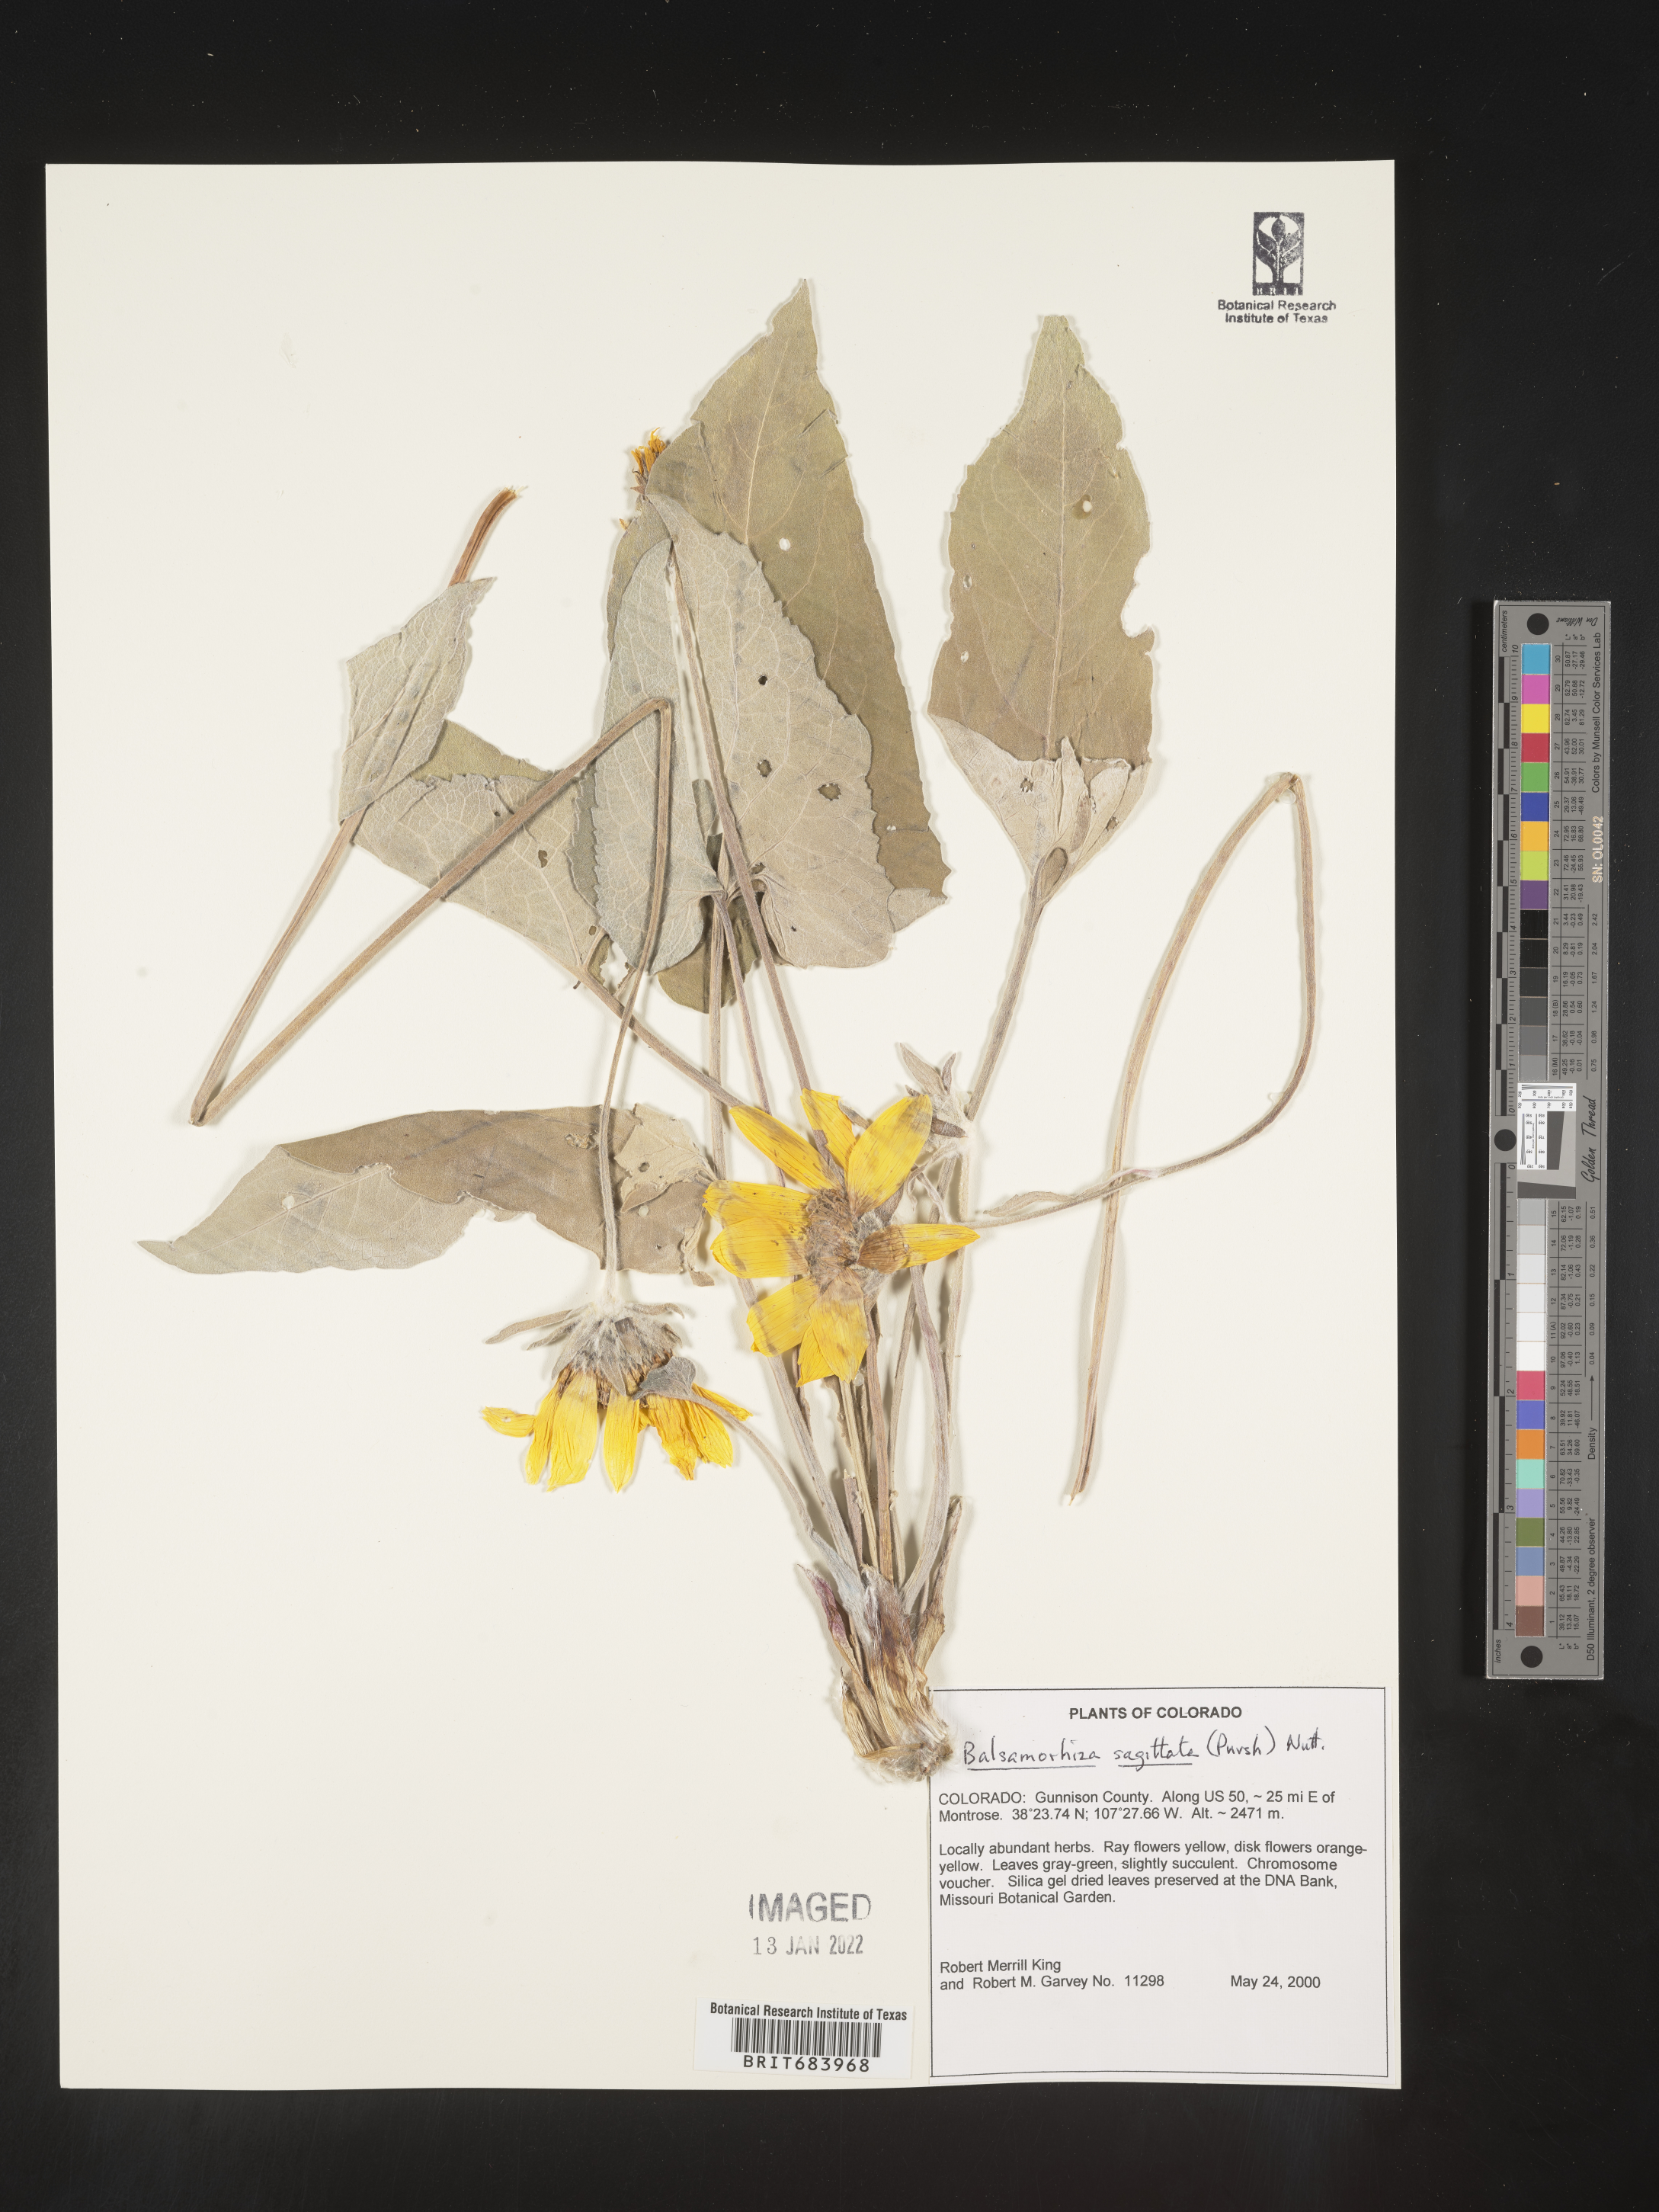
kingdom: Plantae
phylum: Tracheophyta
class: Magnoliopsida
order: Asterales
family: Asteraceae
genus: Wyethia
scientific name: Wyethia sagittata
